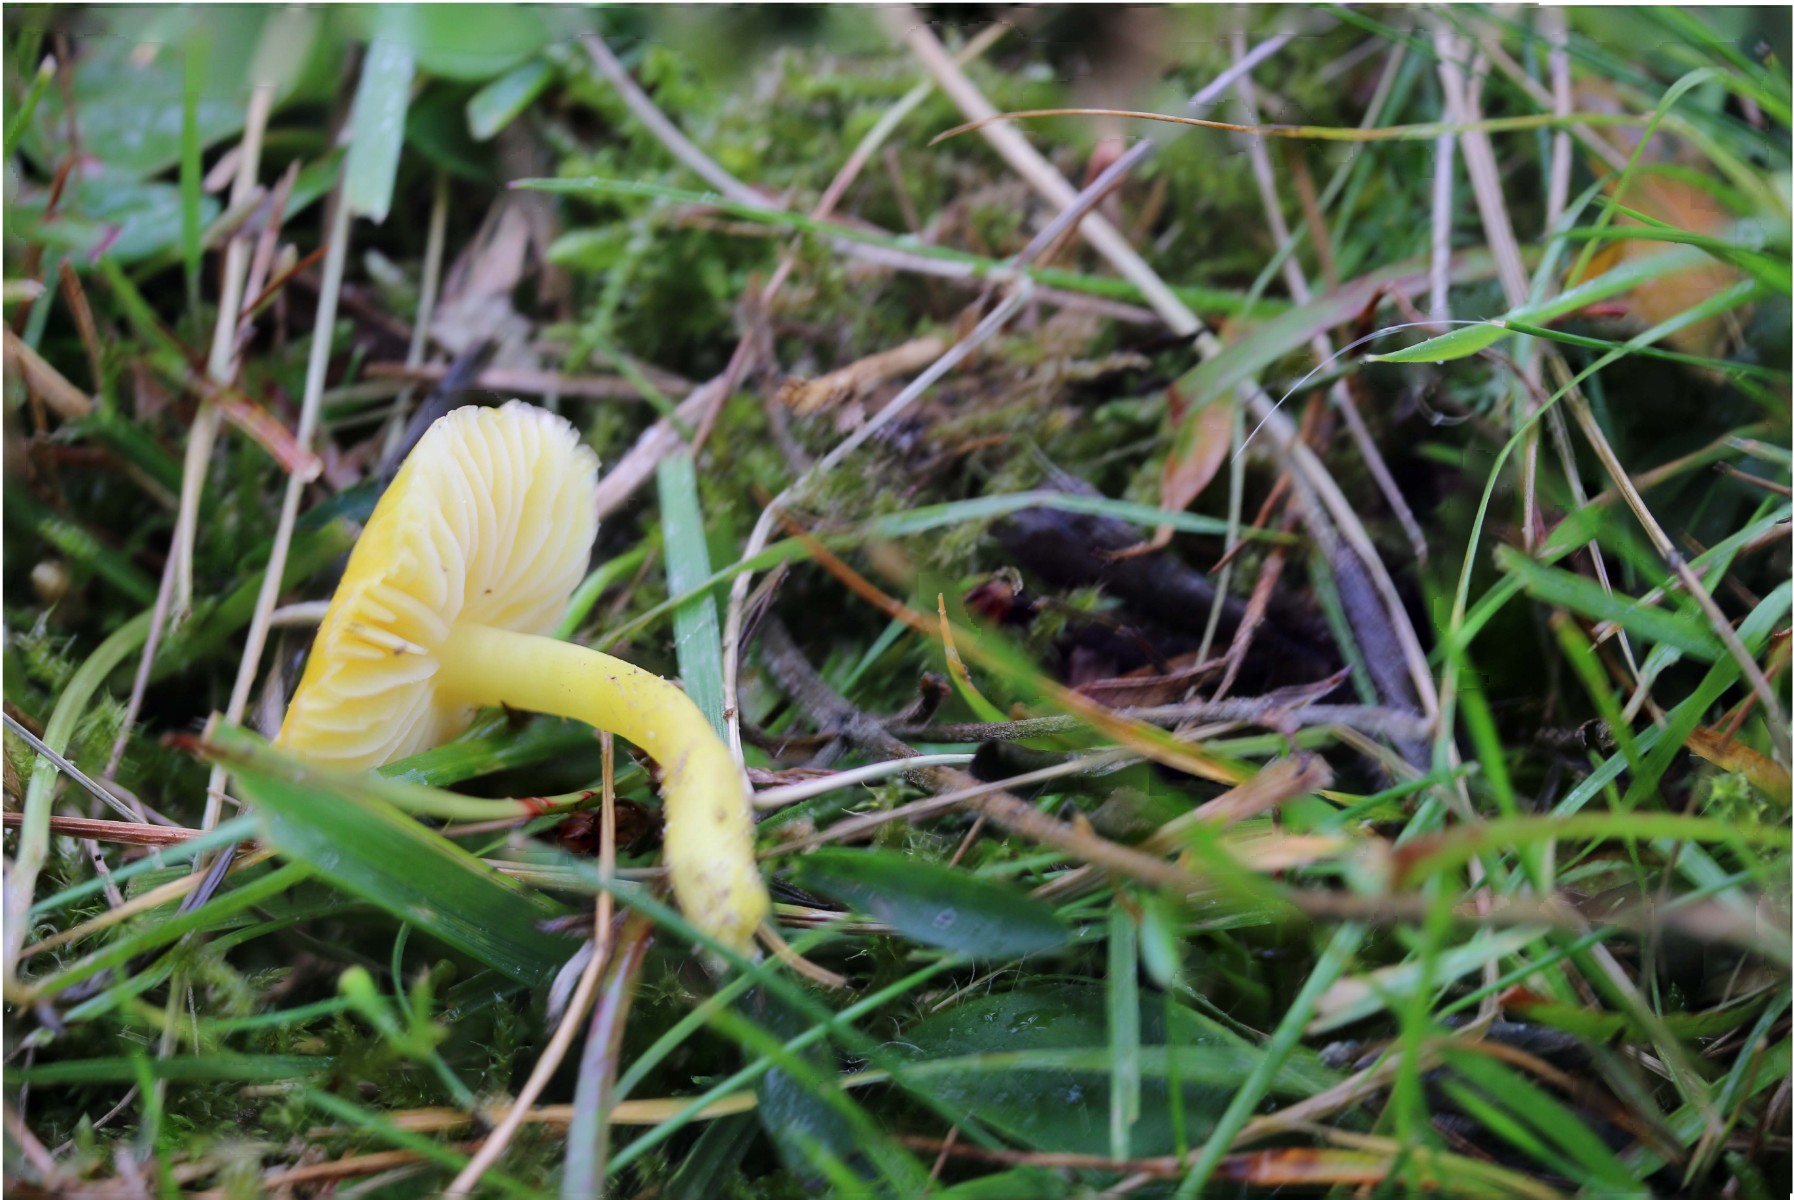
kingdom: Fungi
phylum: Basidiomycota
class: Agaricomycetes
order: Agaricales
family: Hygrophoraceae
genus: Hygrocybe
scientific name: Hygrocybe ceracea
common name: voksgul vokshat
